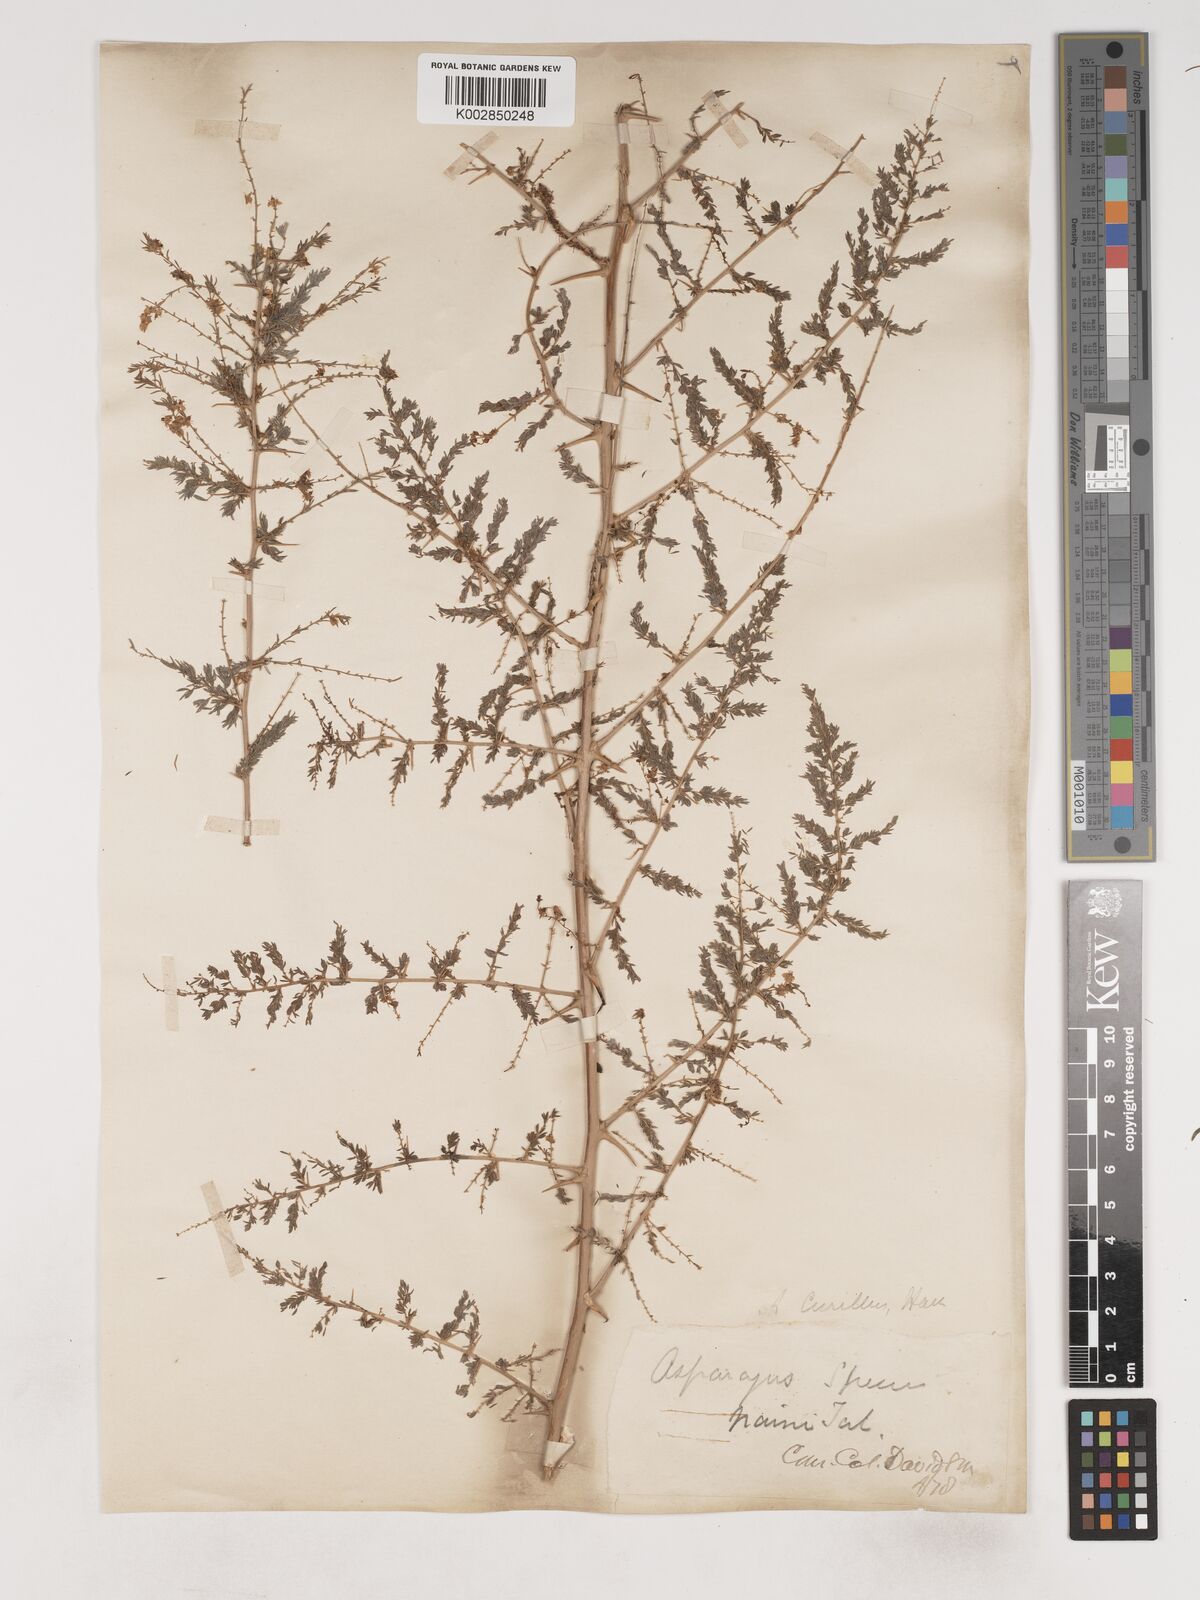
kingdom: Plantae
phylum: Tracheophyta
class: Liliopsida
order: Asparagales
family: Asparagaceae
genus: Asparagus
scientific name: Asparagus curillus
